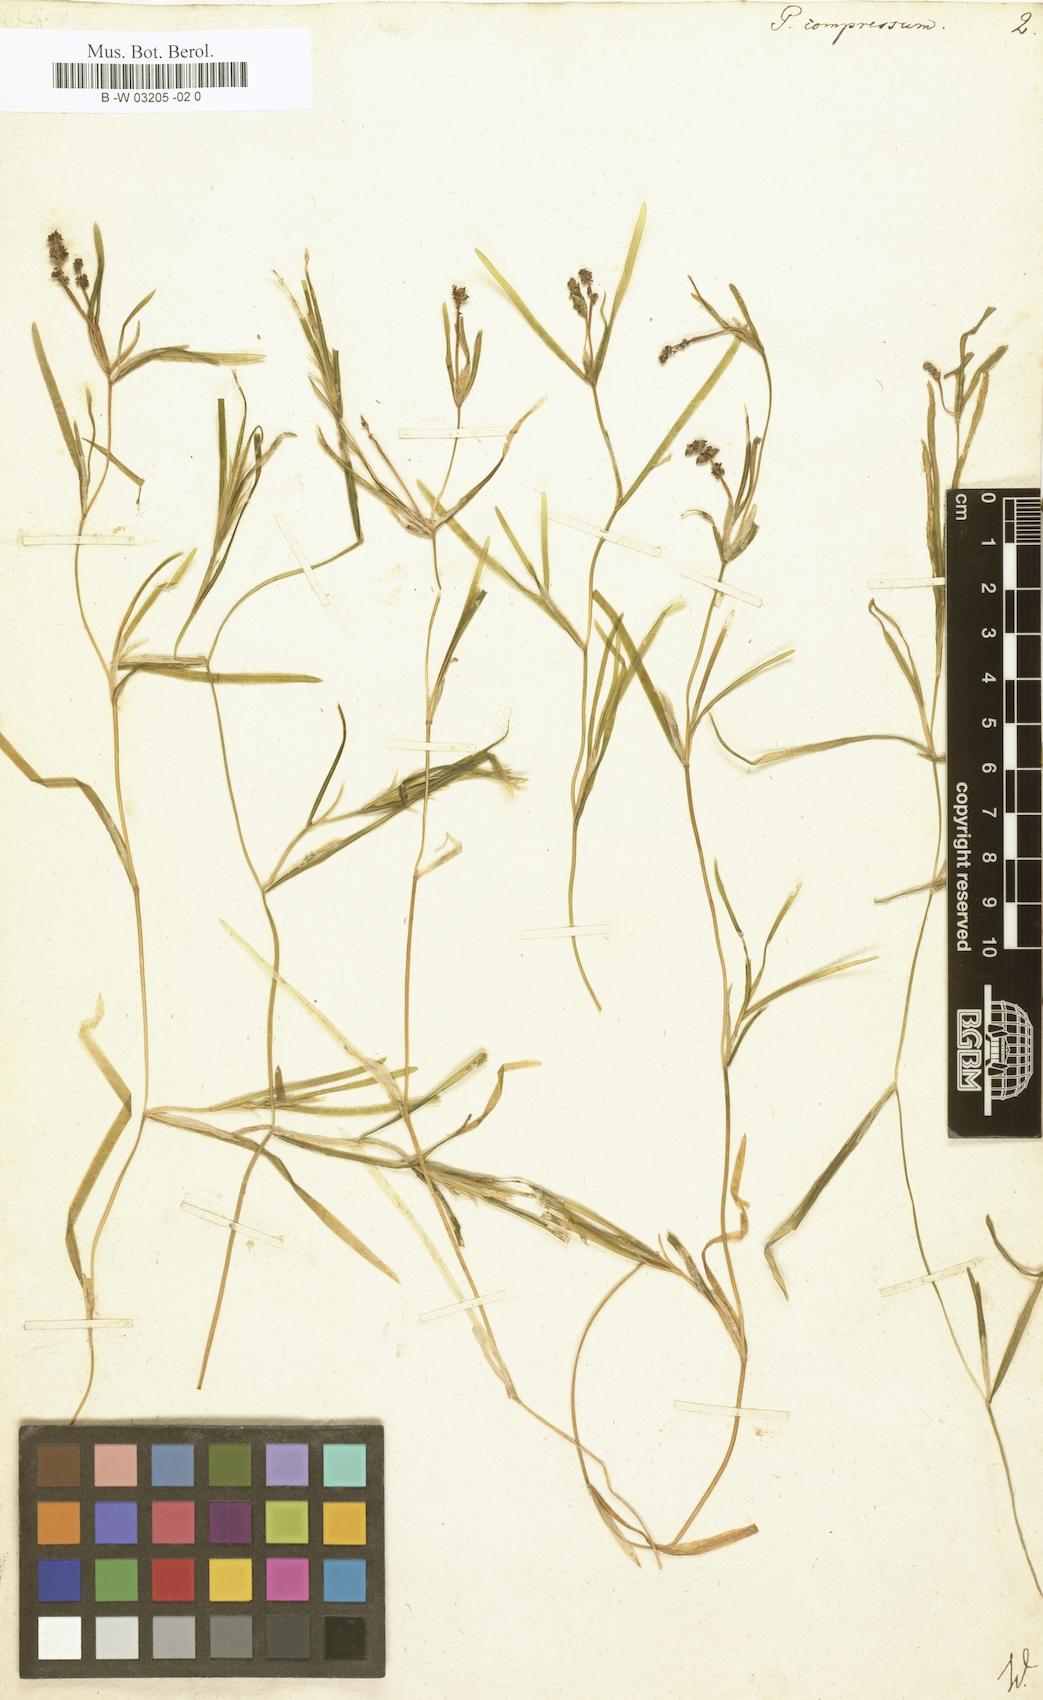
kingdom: Plantae
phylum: Tracheophyta
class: Liliopsida
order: Alismatales
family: Potamogetonaceae
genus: Potamogeton
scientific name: Potamogeton compressus
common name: Grass-wrack pondweed
